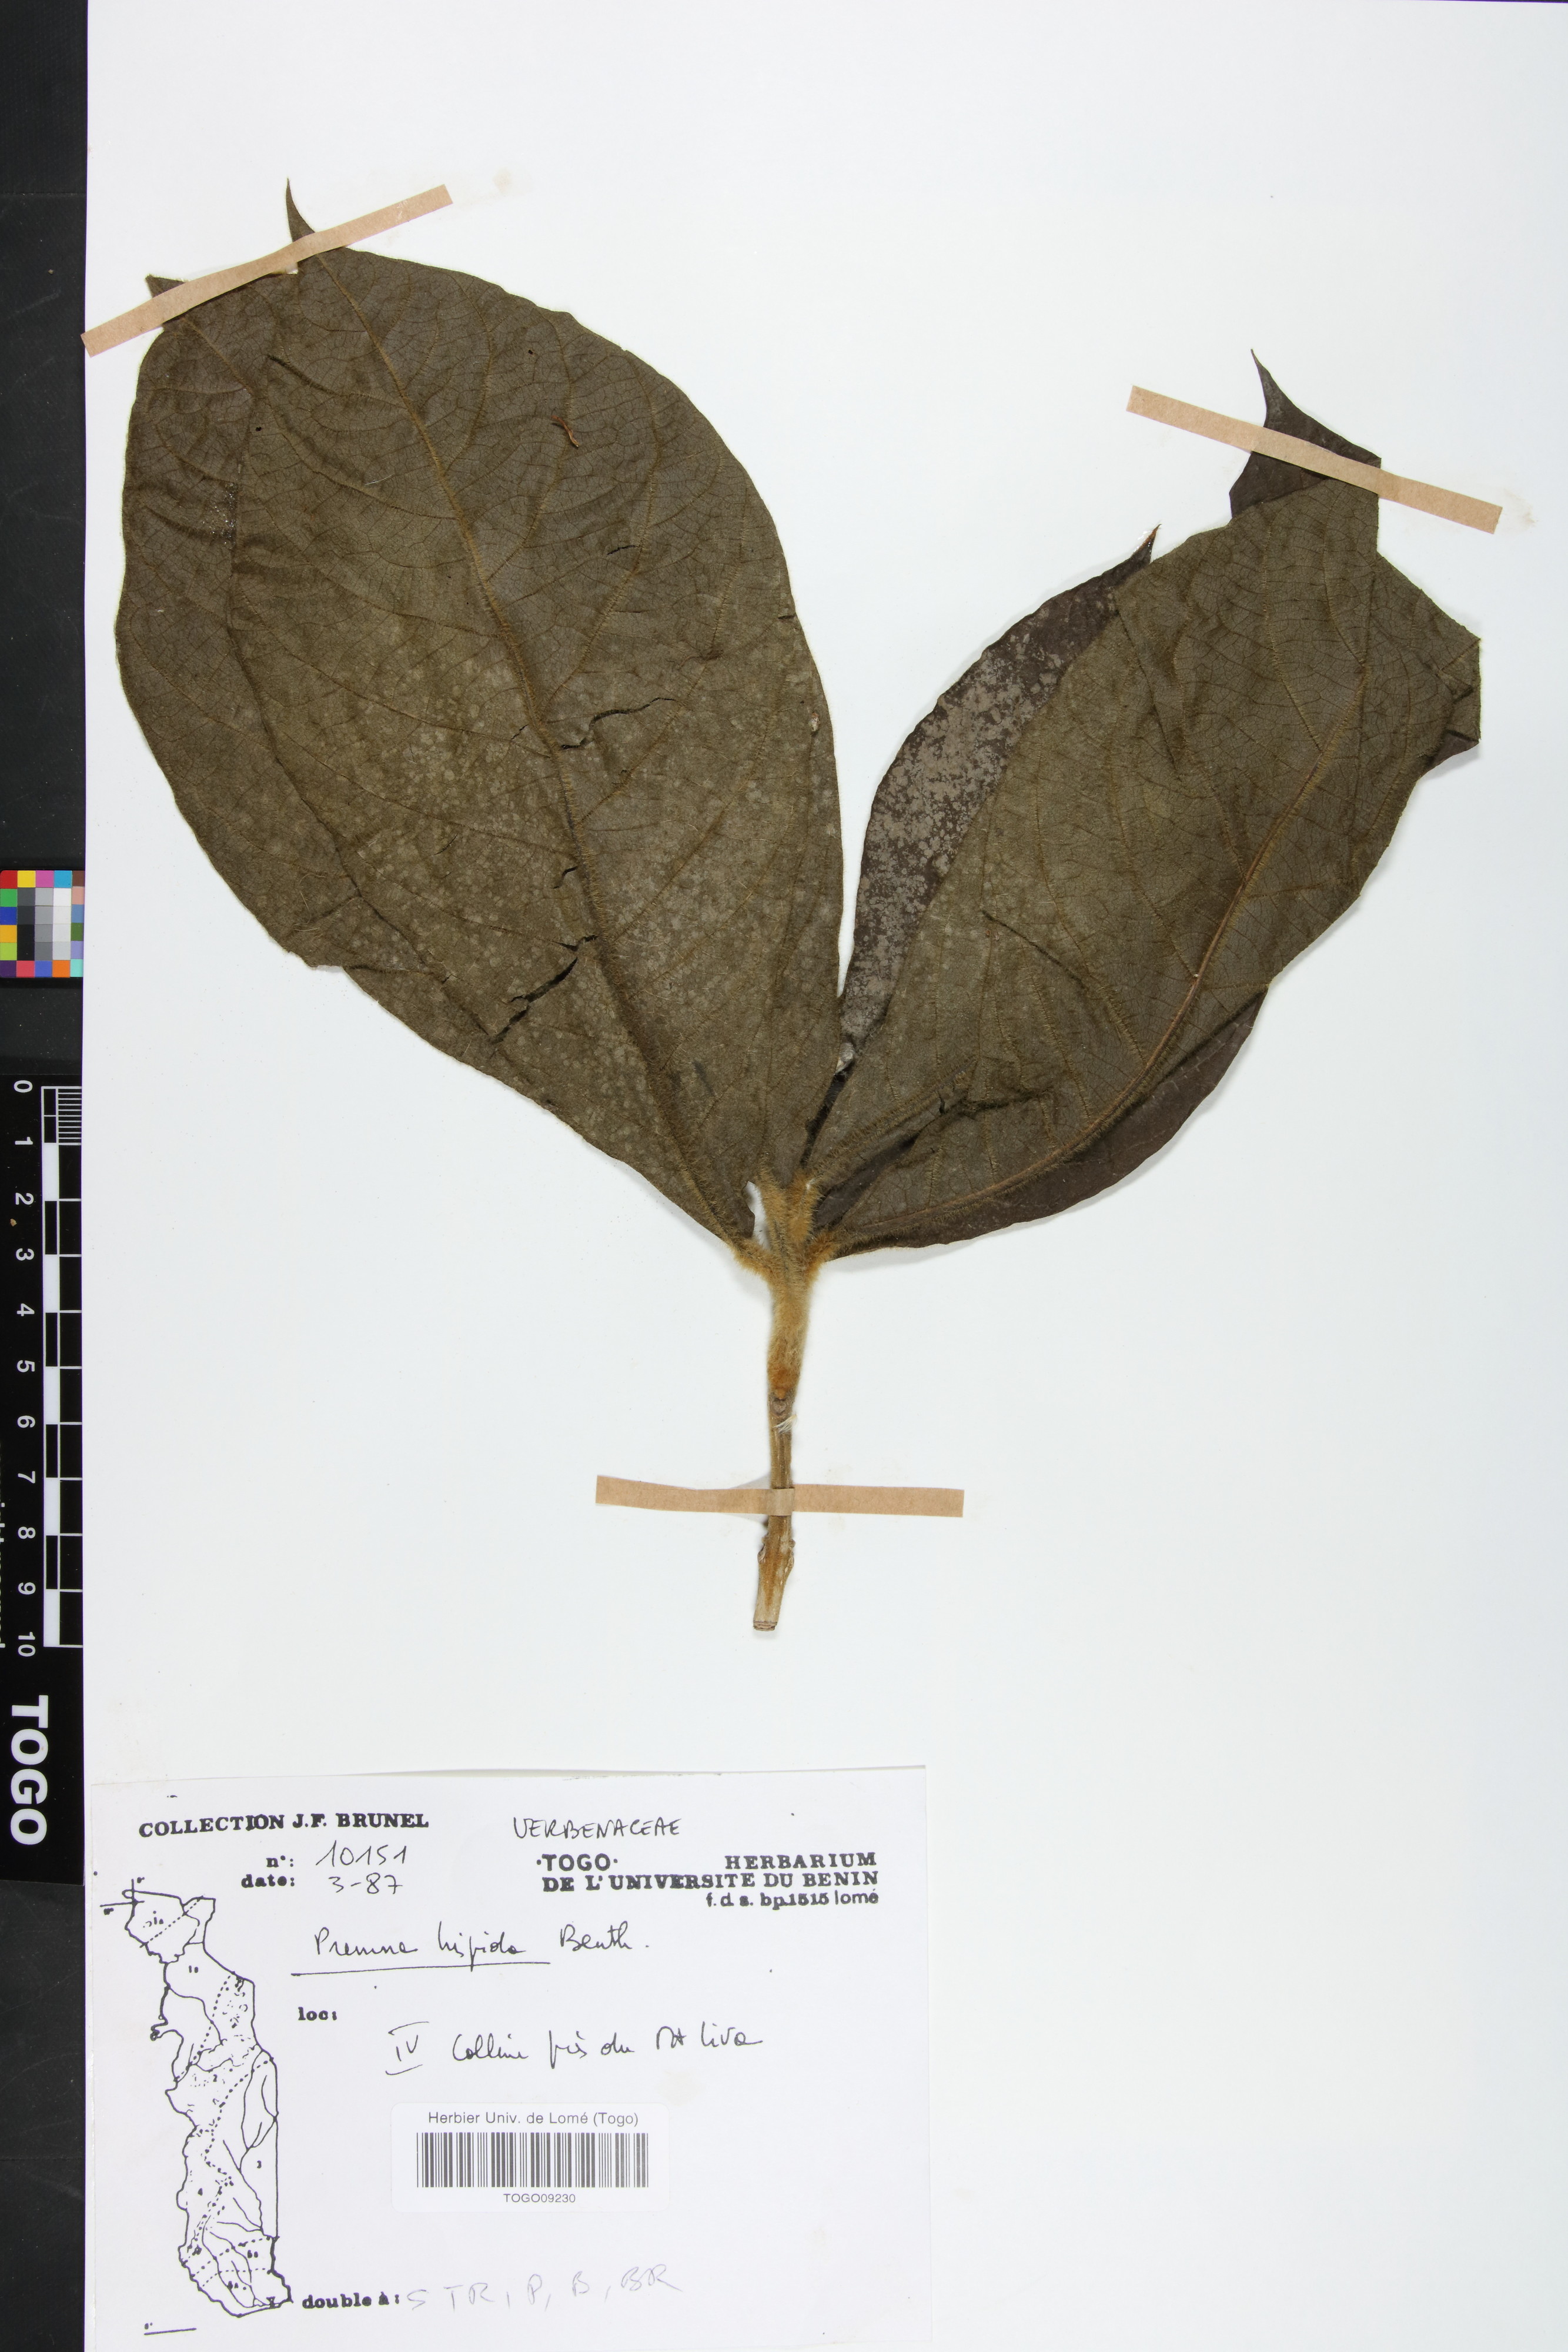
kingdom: Plantae
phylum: Tracheophyta
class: Magnoliopsida
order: Lamiales
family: Lamiaceae
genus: Premna
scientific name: Premna hispida
